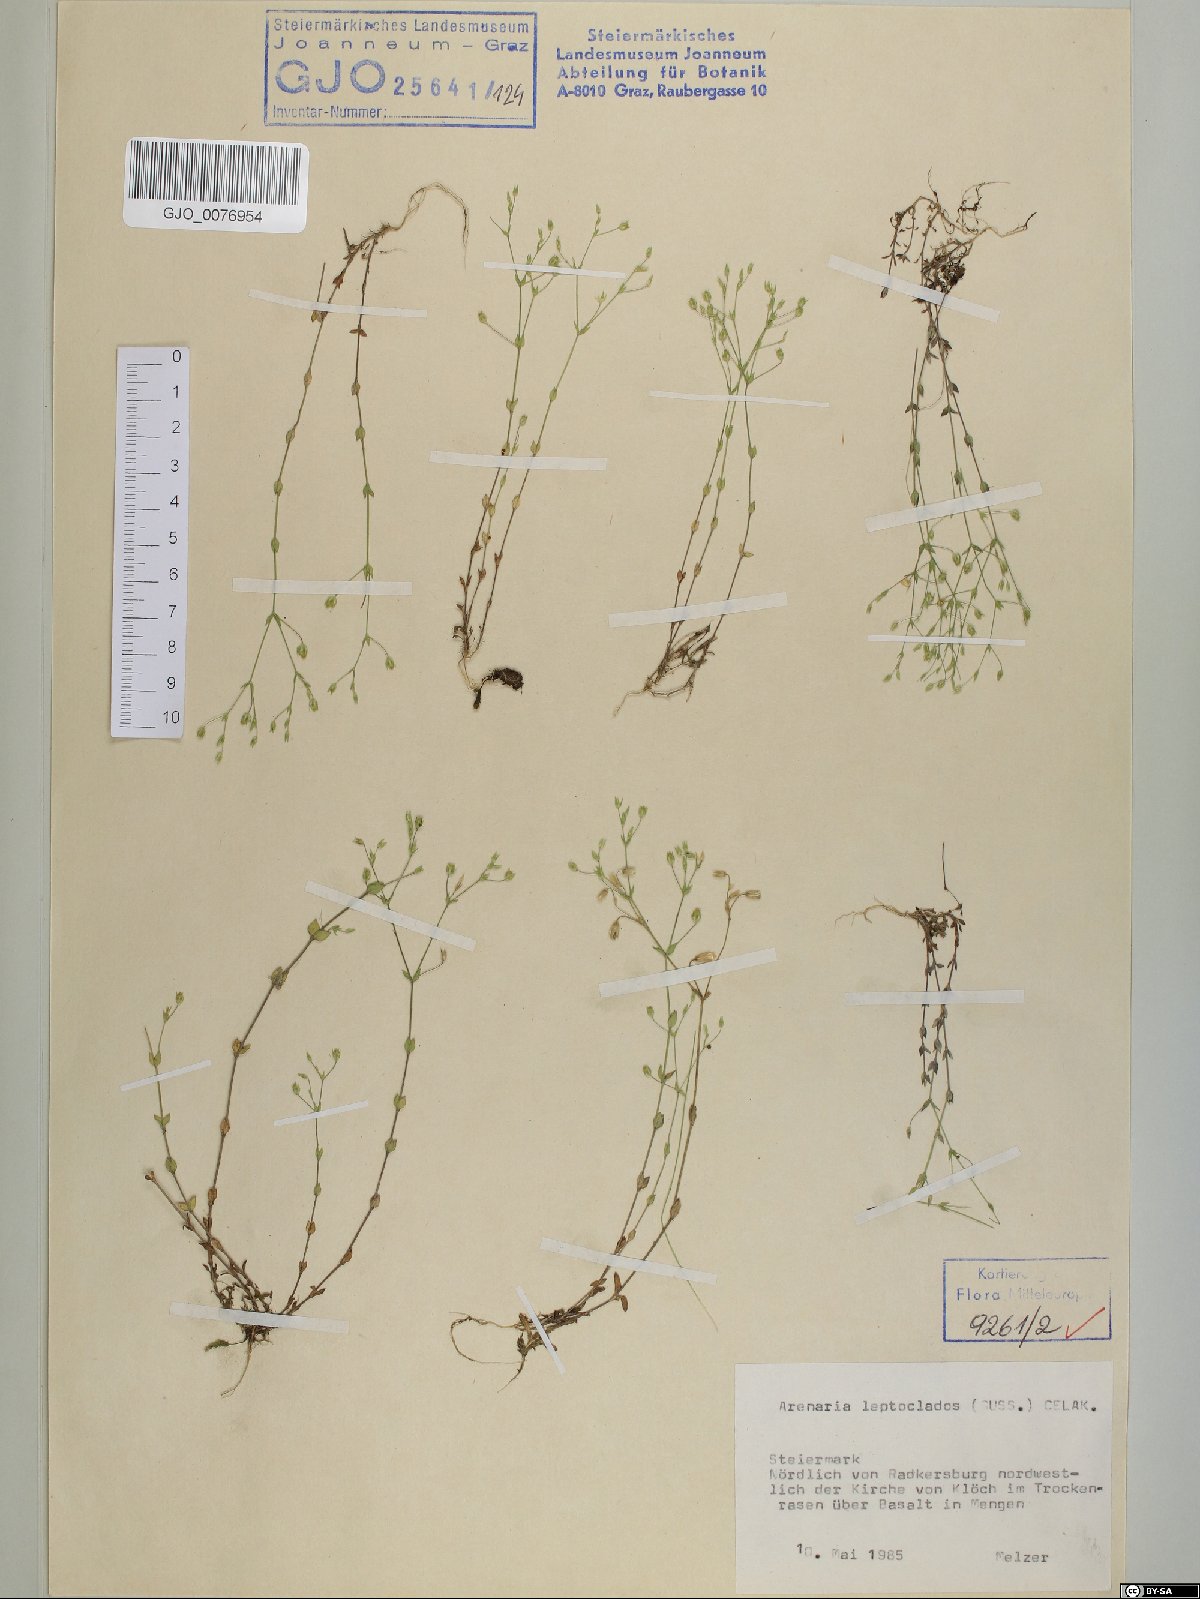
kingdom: Plantae
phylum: Tracheophyta
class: Magnoliopsida
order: Caryophyllales
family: Caryophyllaceae
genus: Arenaria
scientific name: Arenaria leptoclados
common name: Thyme-leaved sandwort
